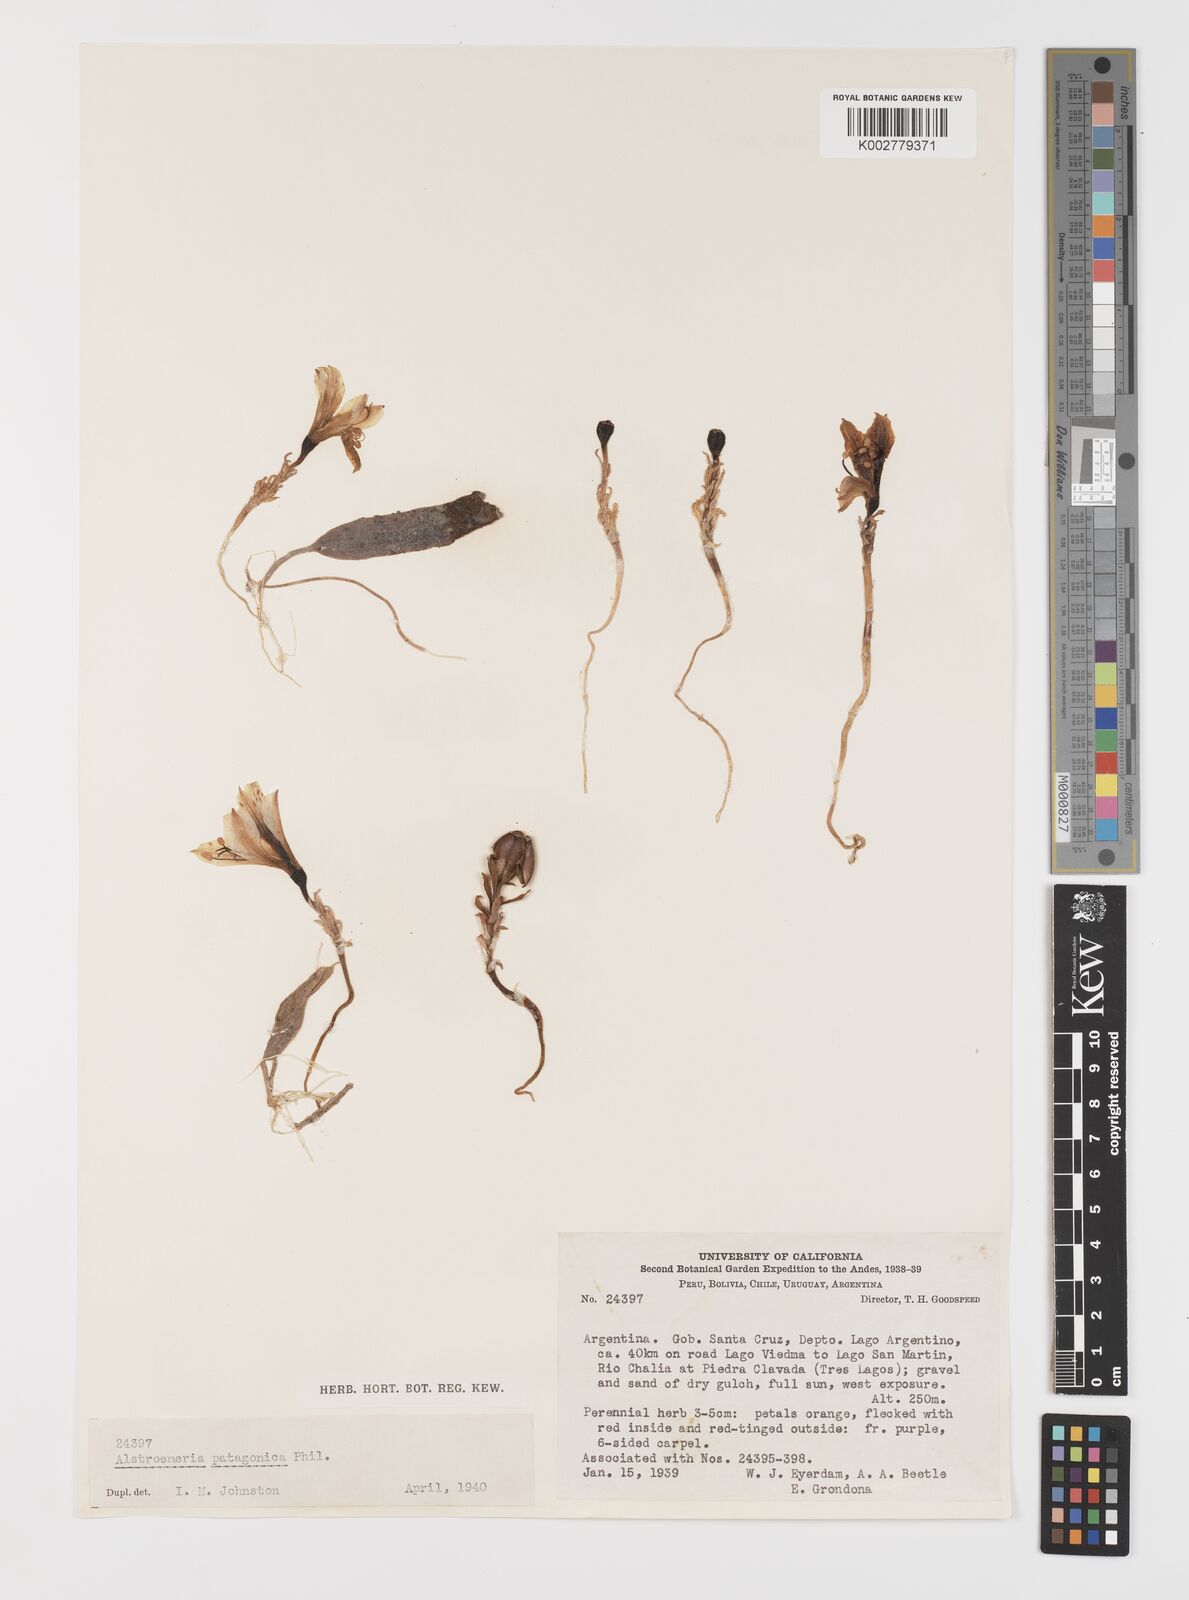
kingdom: Plantae
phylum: Tracheophyta
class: Liliopsida
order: Liliales
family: Alstroemeriaceae
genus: Alstroemeria
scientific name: Alstroemeria patagonica
